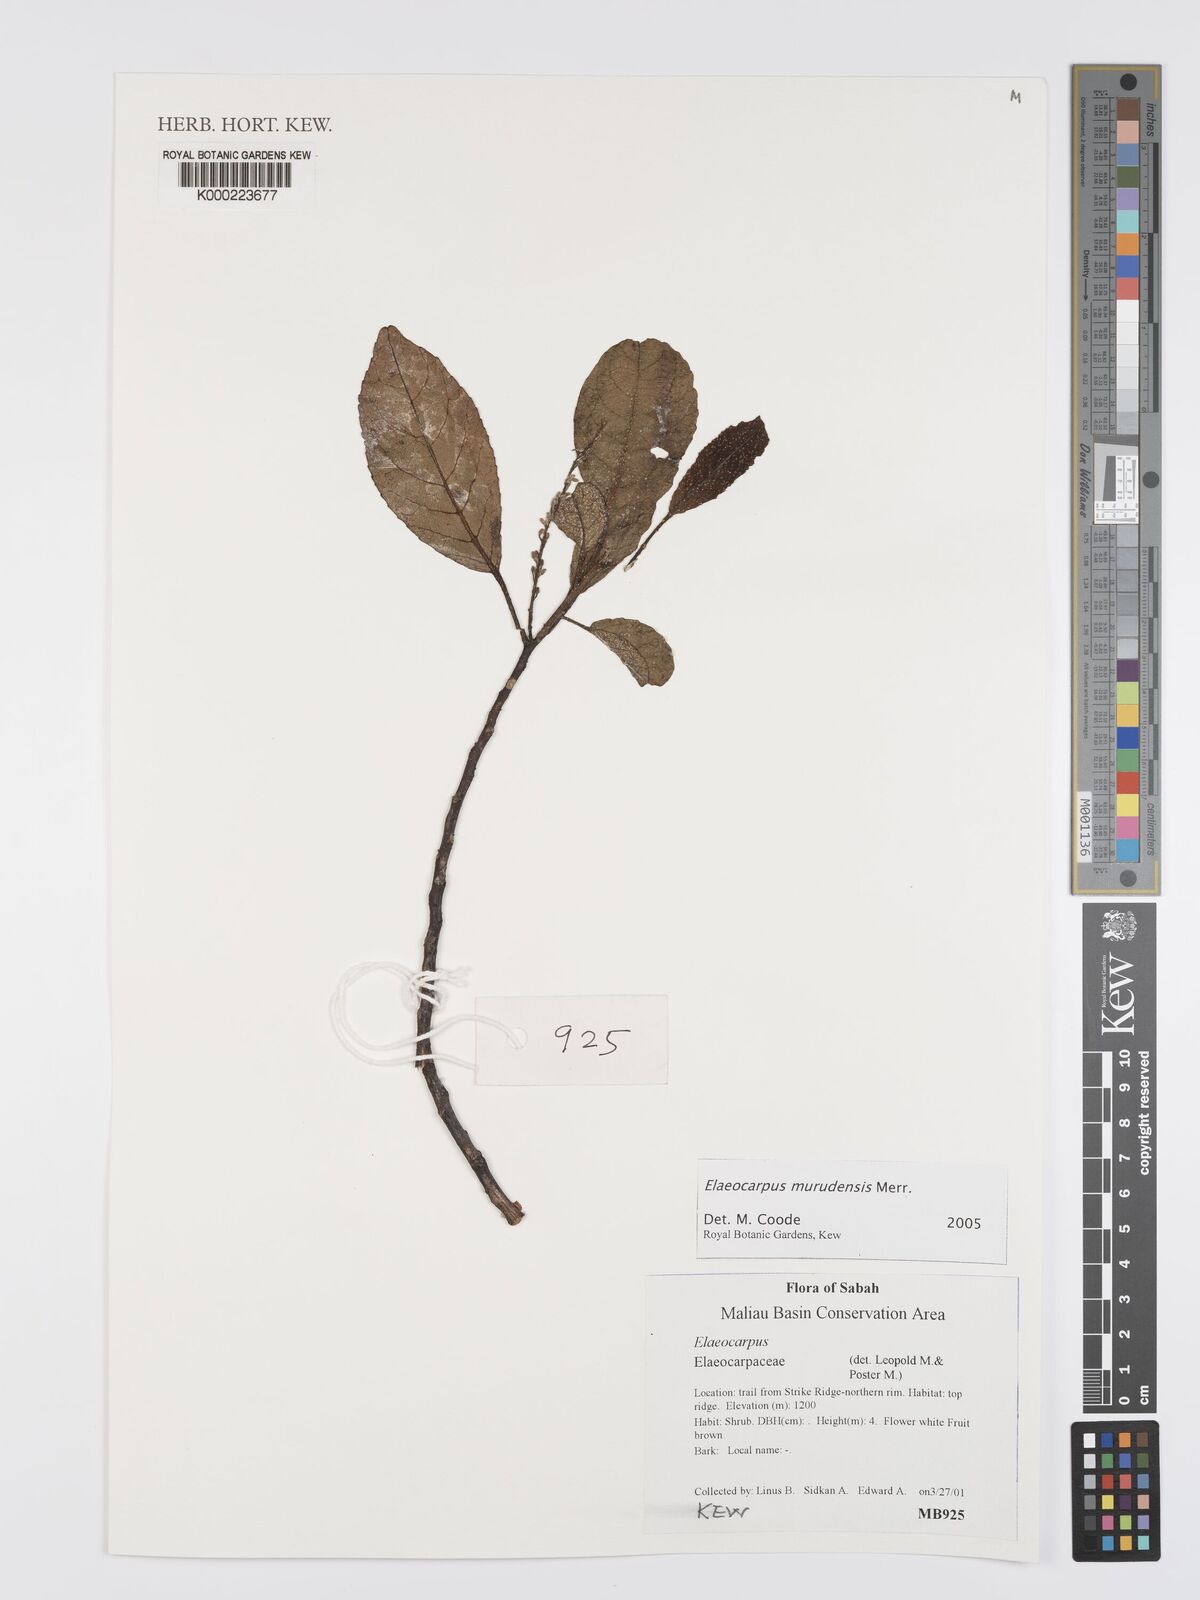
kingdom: Plantae
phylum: Tracheophyta
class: Magnoliopsida
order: Oxalidales
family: Elaeocarpaceae
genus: Elaeocarpus
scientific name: Elaeocarpus murudensis
